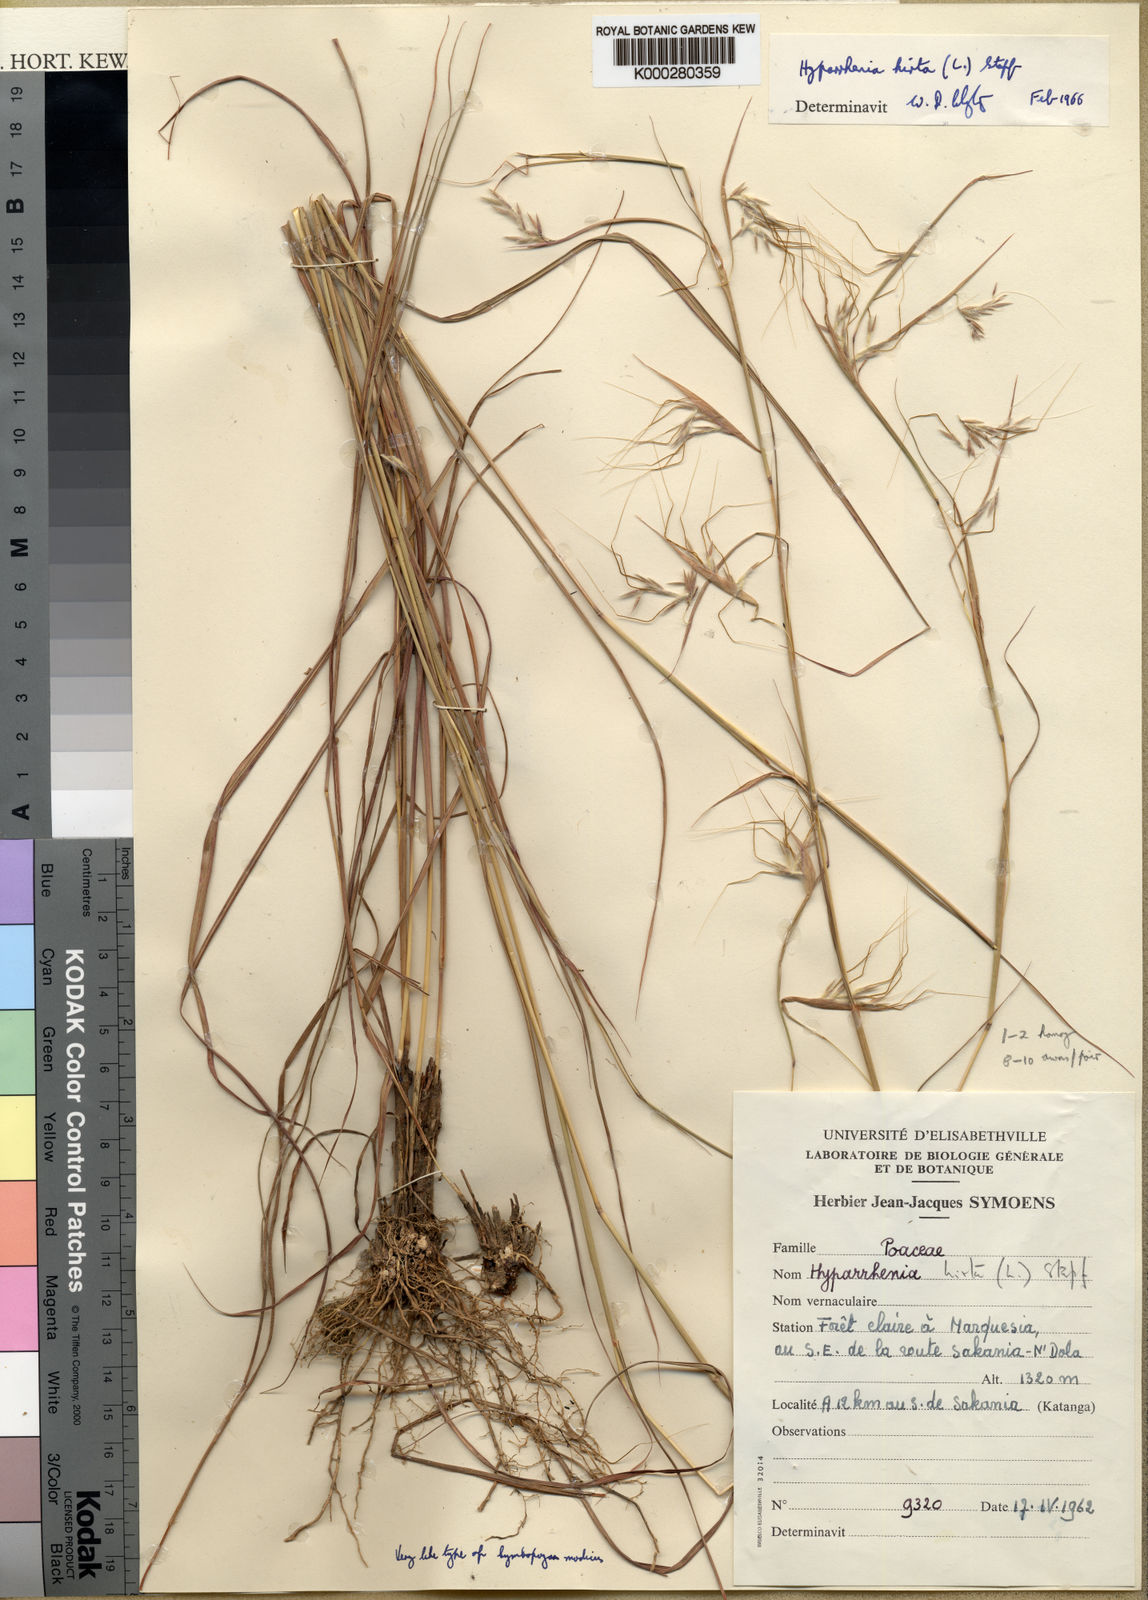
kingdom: Plantae
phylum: Tracheophyta
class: Liliopsida
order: Poales
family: Poaceae
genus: Hyparrhenia
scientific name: Hyparrhenia hirta
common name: Thatching grass
